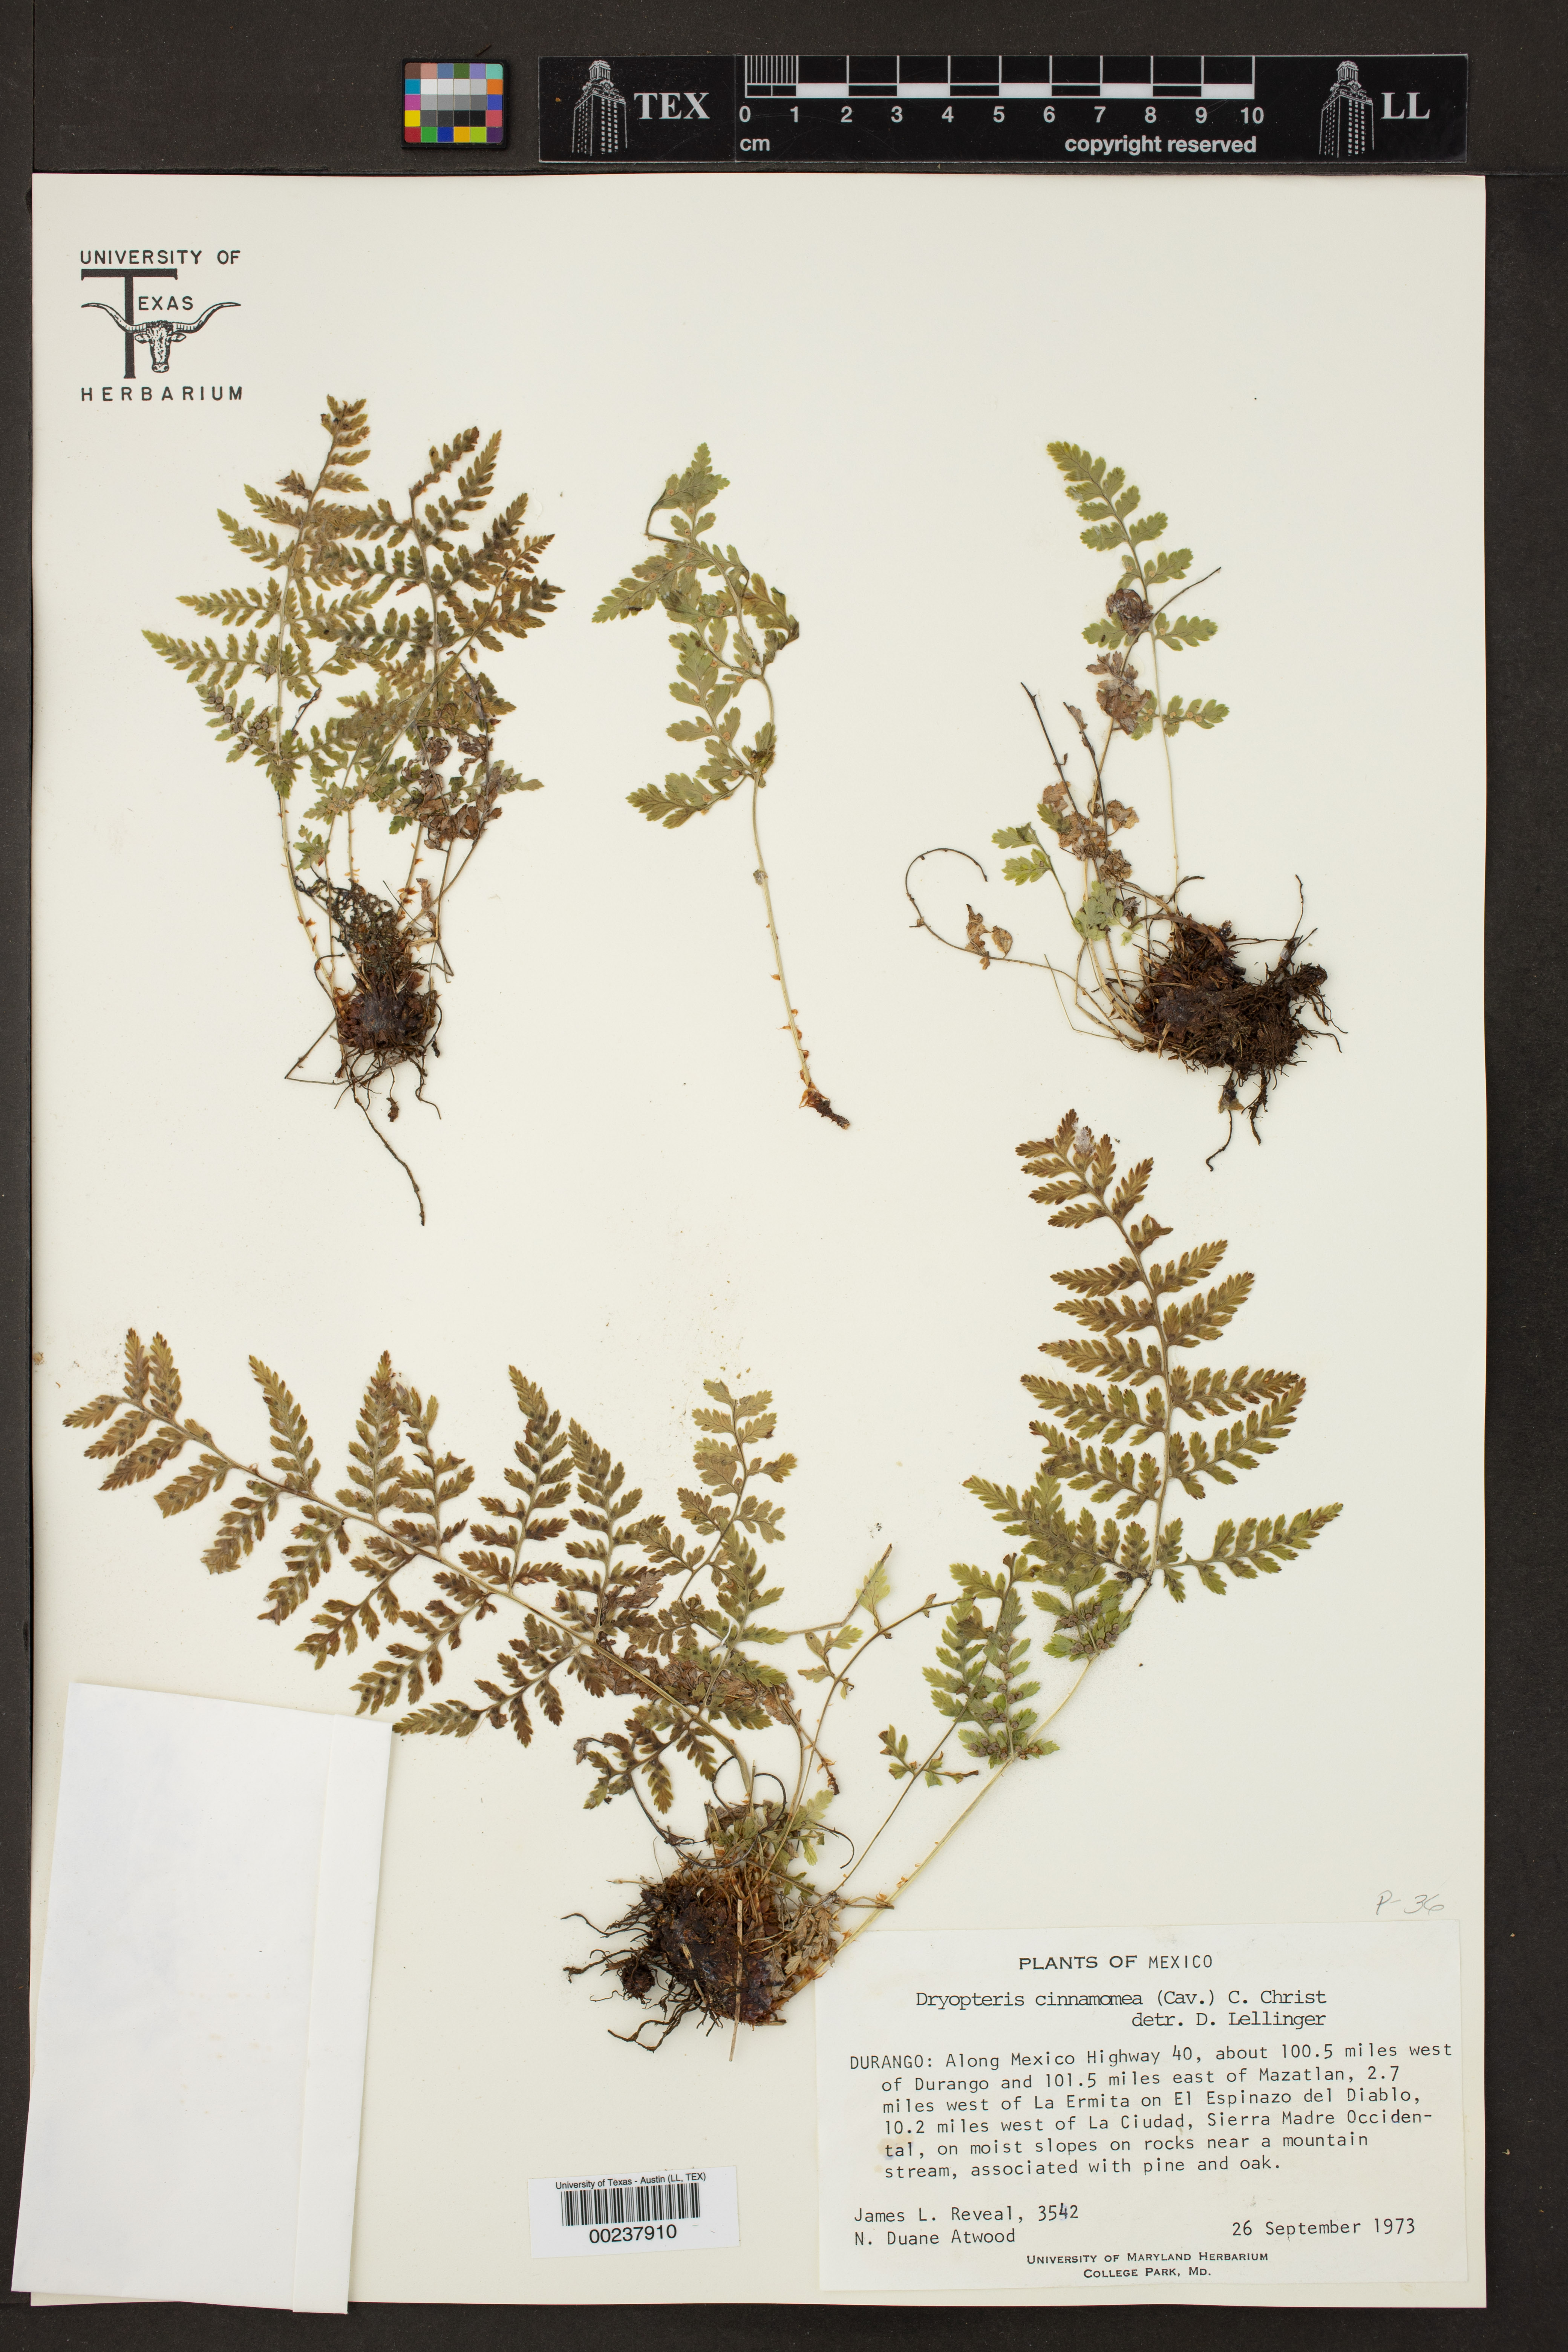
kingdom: Plantae
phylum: Tracheophyta
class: Polypodiopsida
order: Polypodiales
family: Dryopteridaceae
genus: Dryopteris
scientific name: Dryopteris cinnamomea
